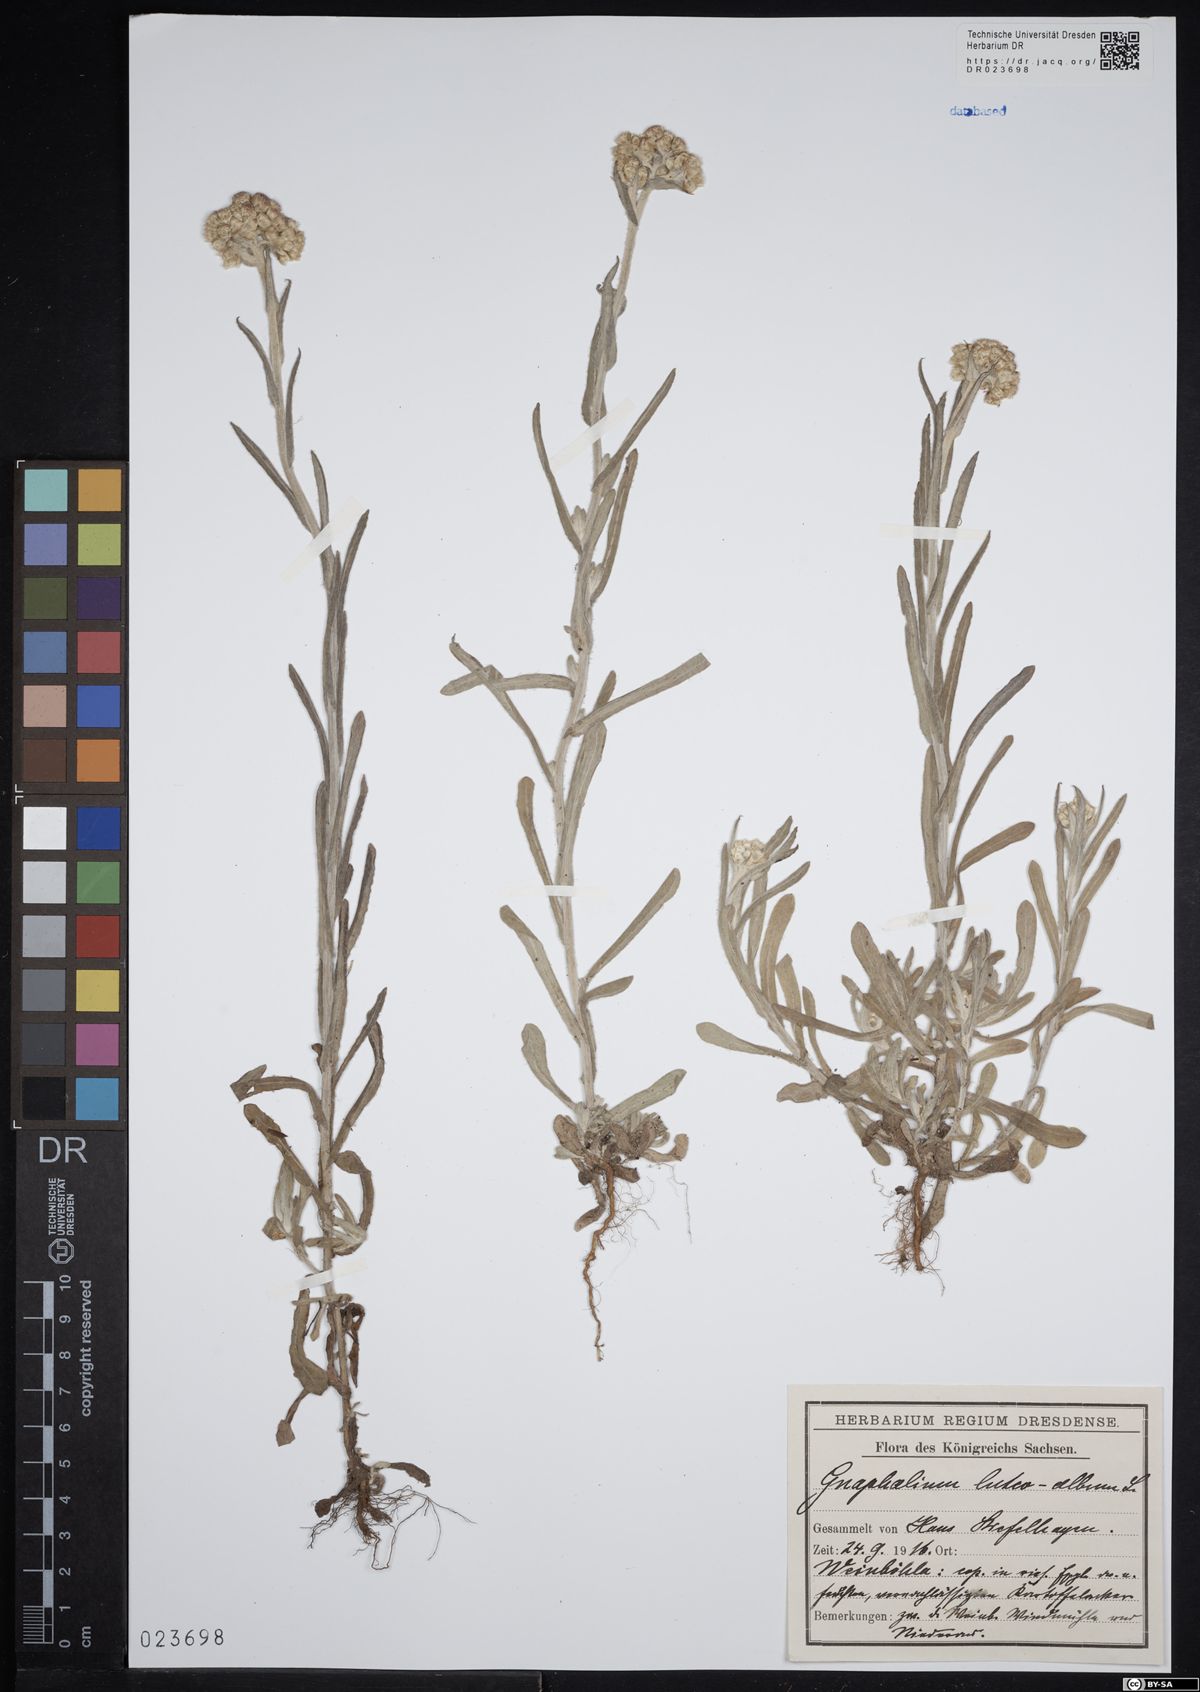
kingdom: Plantae
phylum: Tracheophyta
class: Magnoliopsida
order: Asterales
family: Asteraceae
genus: Helichrysum
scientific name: Helichrysum luteoalbum
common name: Daisy
